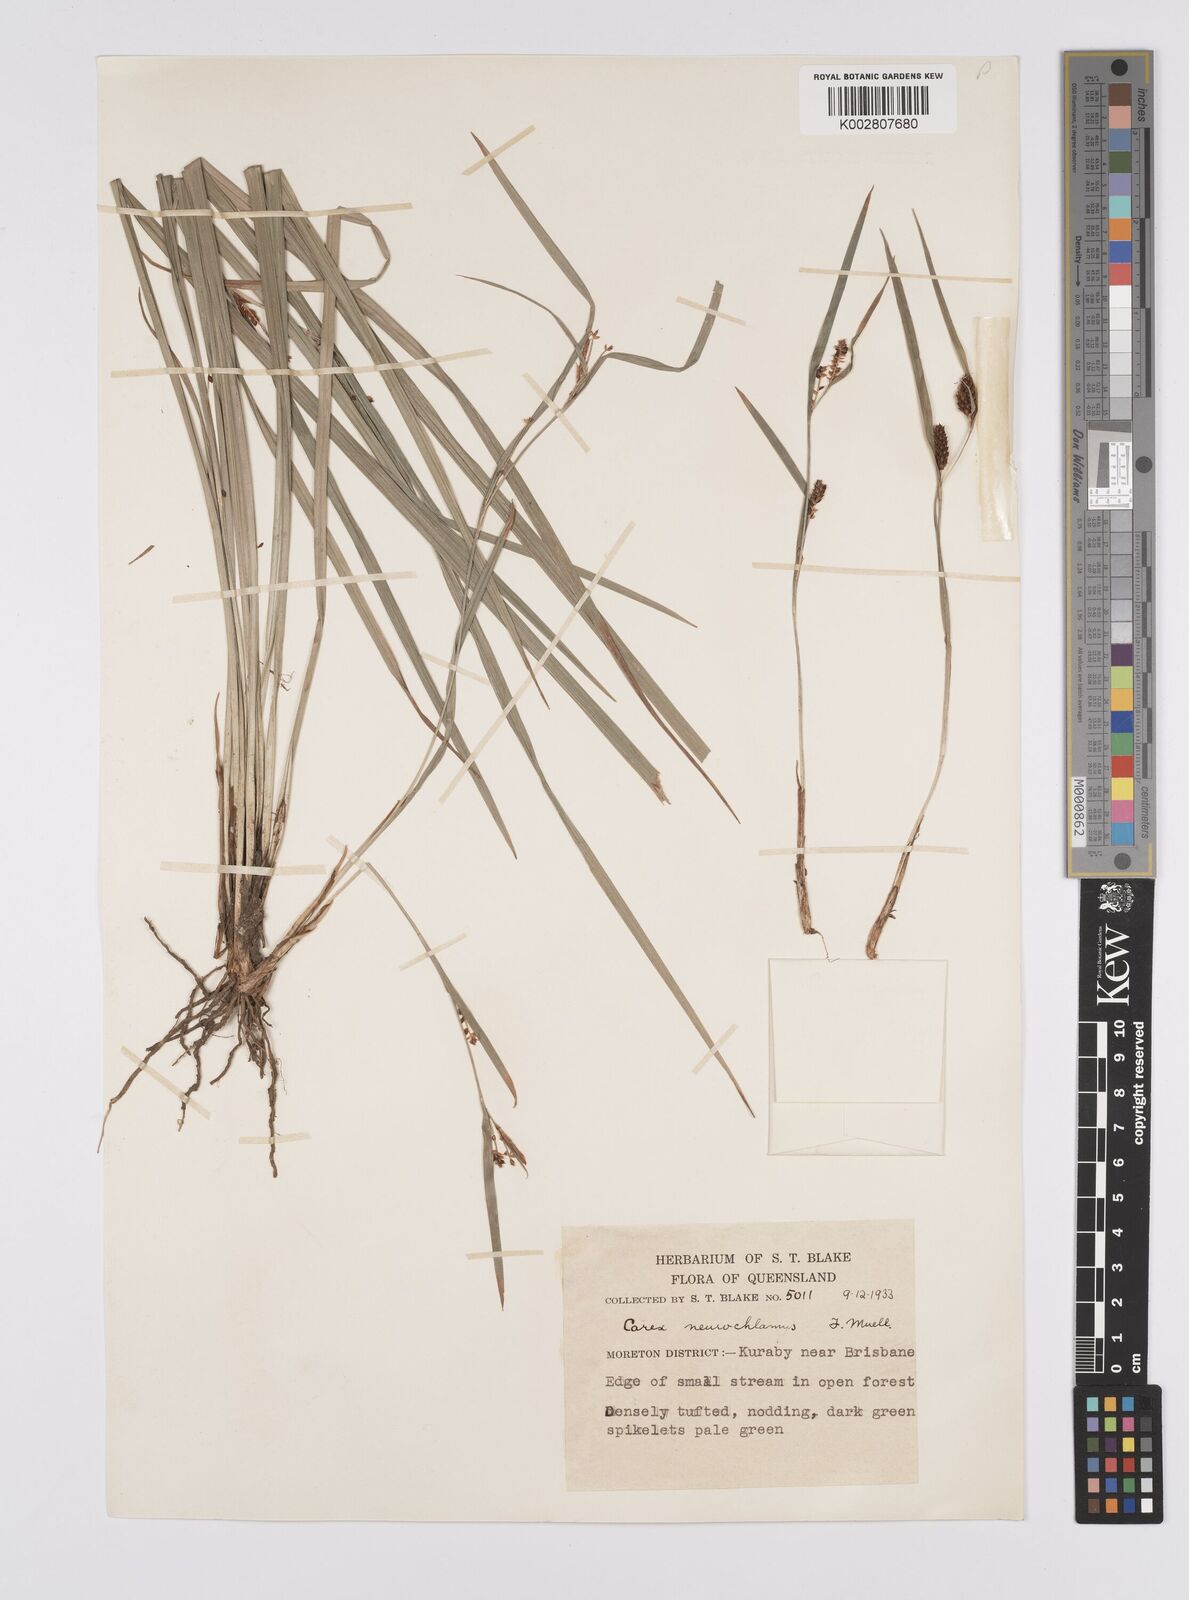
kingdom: Plantae
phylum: Tracheophyta
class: Liliopsida
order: Poales
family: Cyperaceae
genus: Carex
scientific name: Carex maculata
